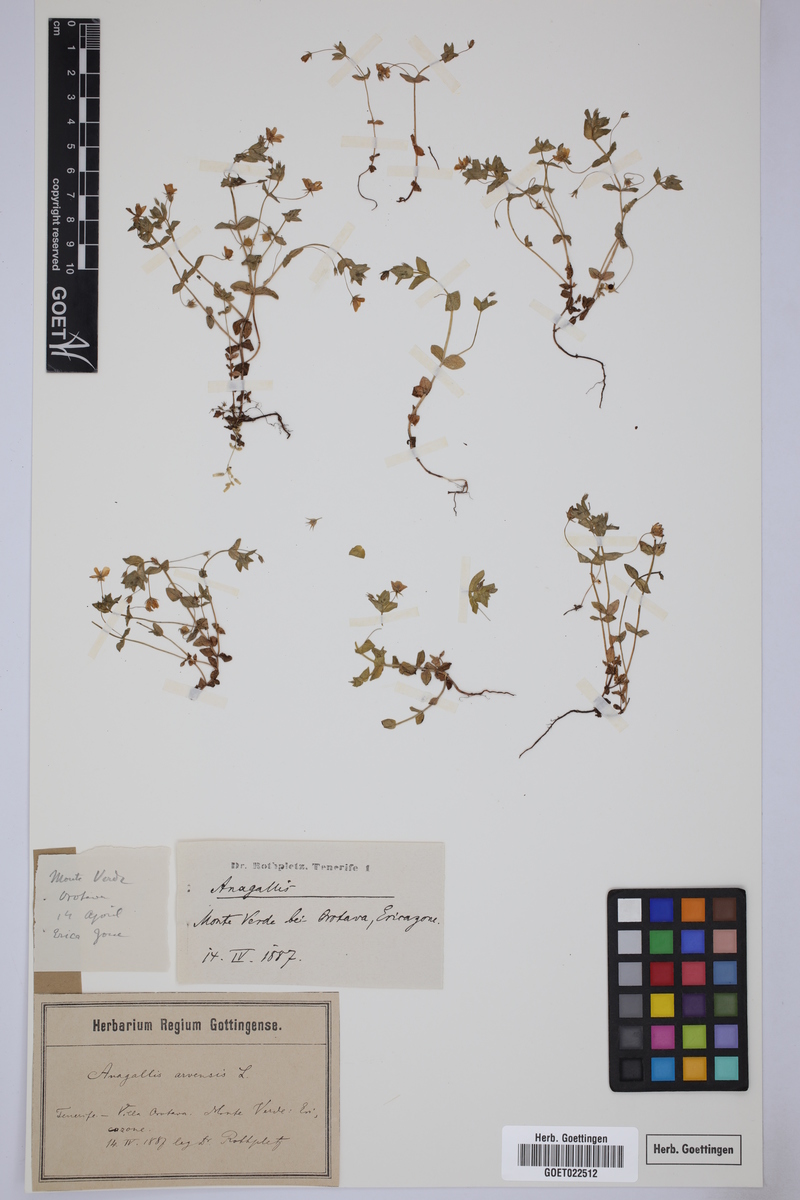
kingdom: Plantae
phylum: Tracheophyta
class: Magnoliopsida
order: Ericales
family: Primulaceae
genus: Lysimachia
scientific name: Lysimachia arvensis
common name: Scarlet pimpernel
